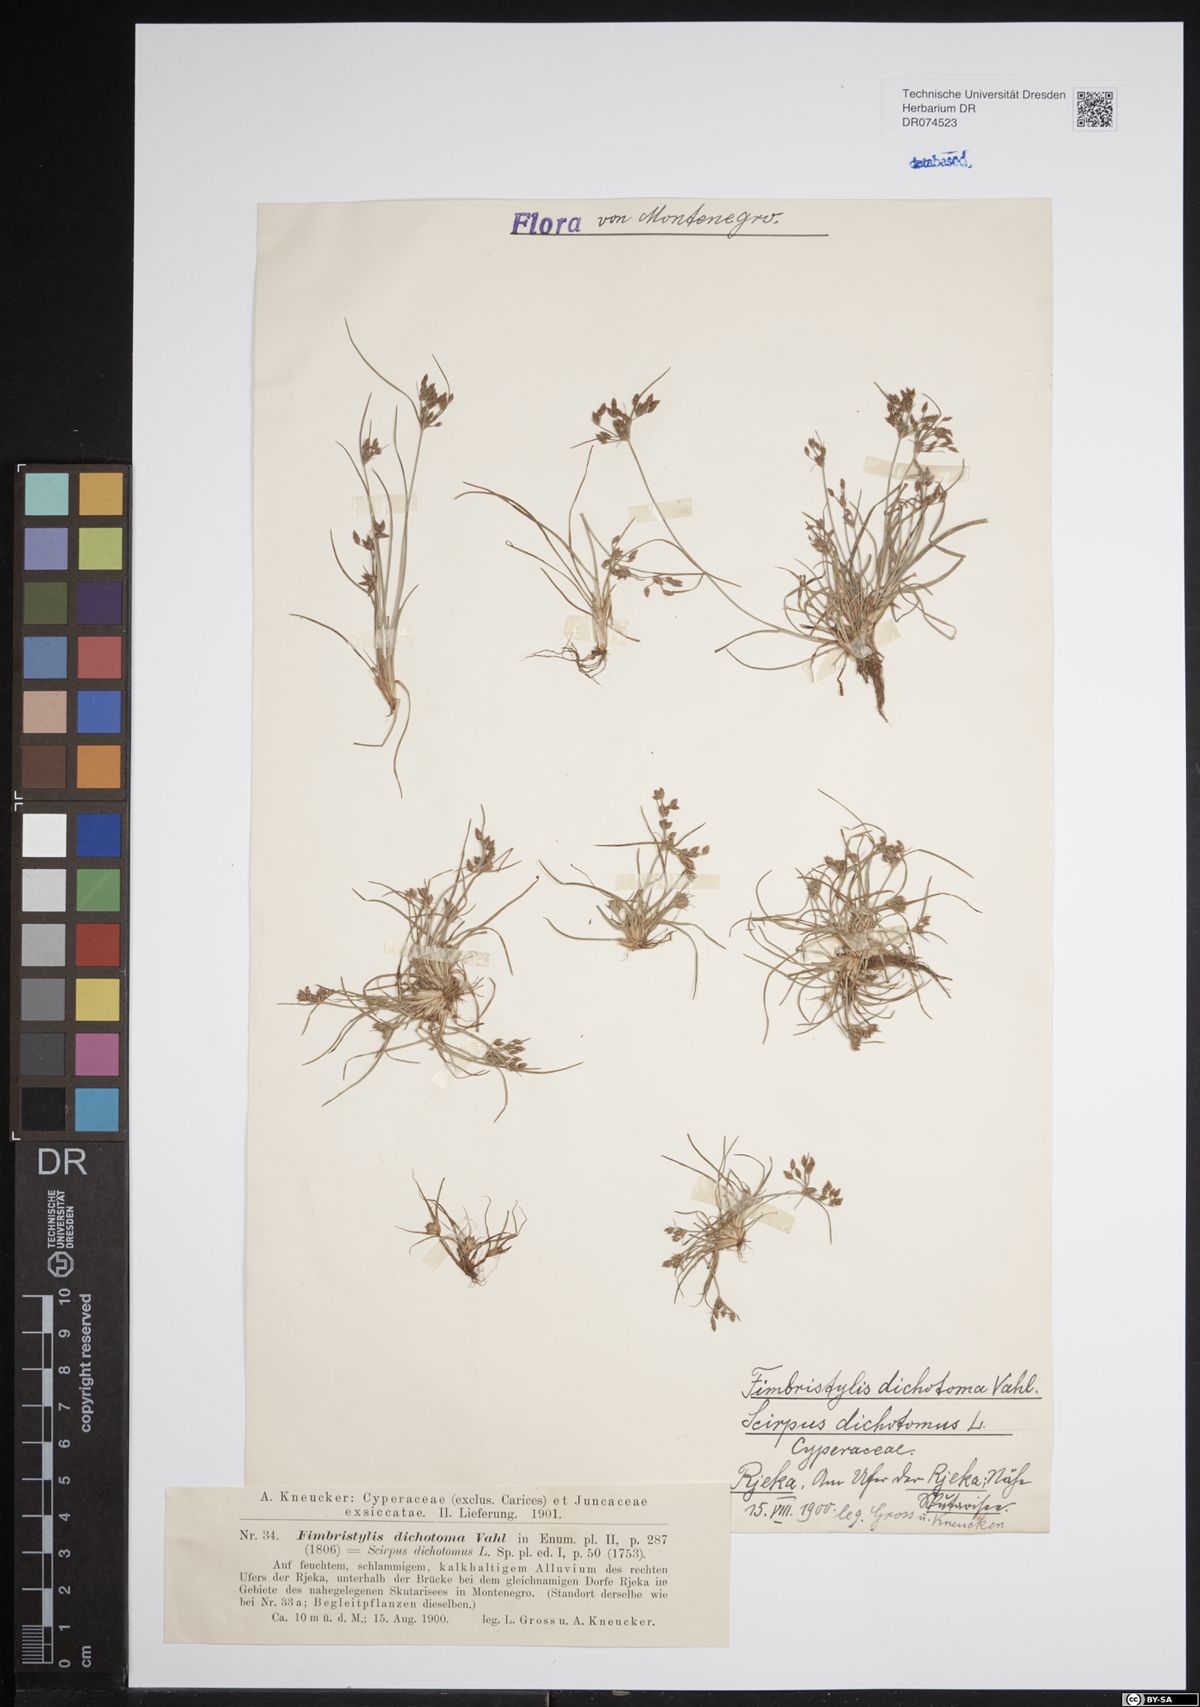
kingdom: Plantae
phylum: Tracheophyta
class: Liliopsida
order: Poales
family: Cyperaceae
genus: Fimbristylis
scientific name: Fimbristylis dichotoma
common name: Forked fimbry
